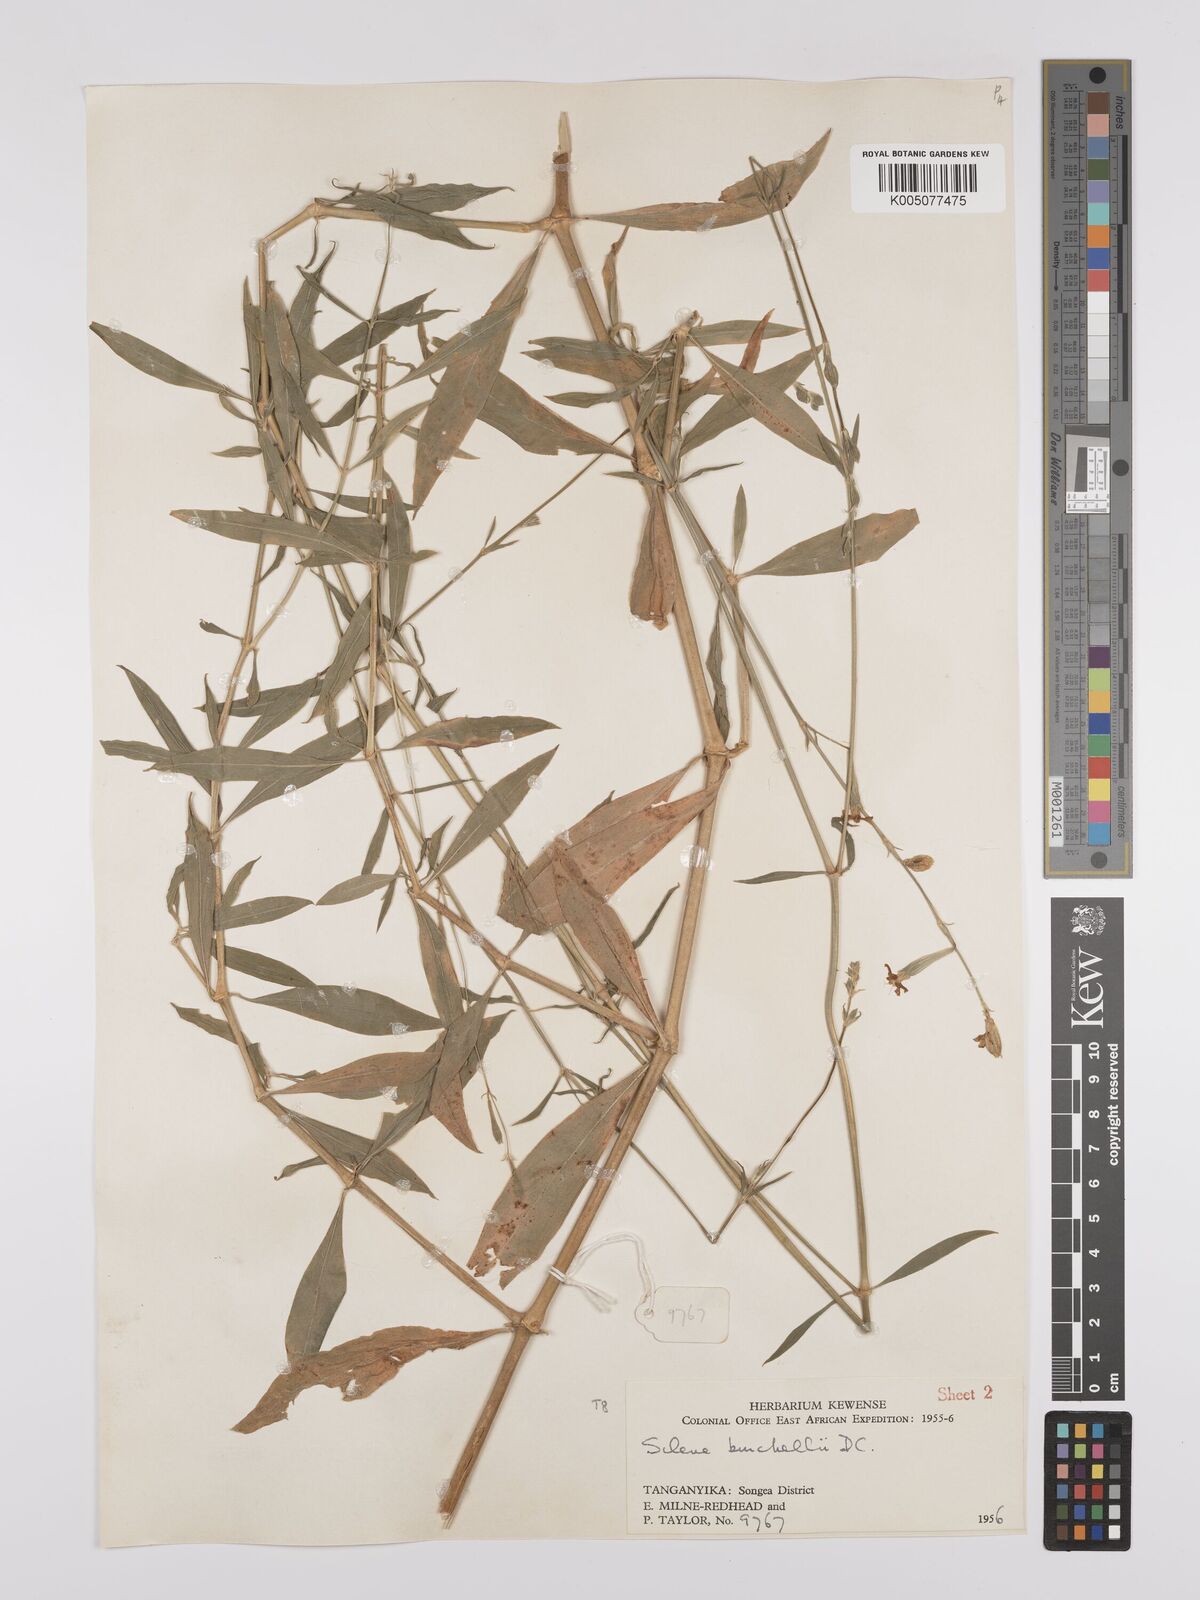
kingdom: Plantae
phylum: Tracheophyta
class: Magnoliopsida
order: Caryophyllales
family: Caryophyllaceae
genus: Silene
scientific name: Silene burchellii
